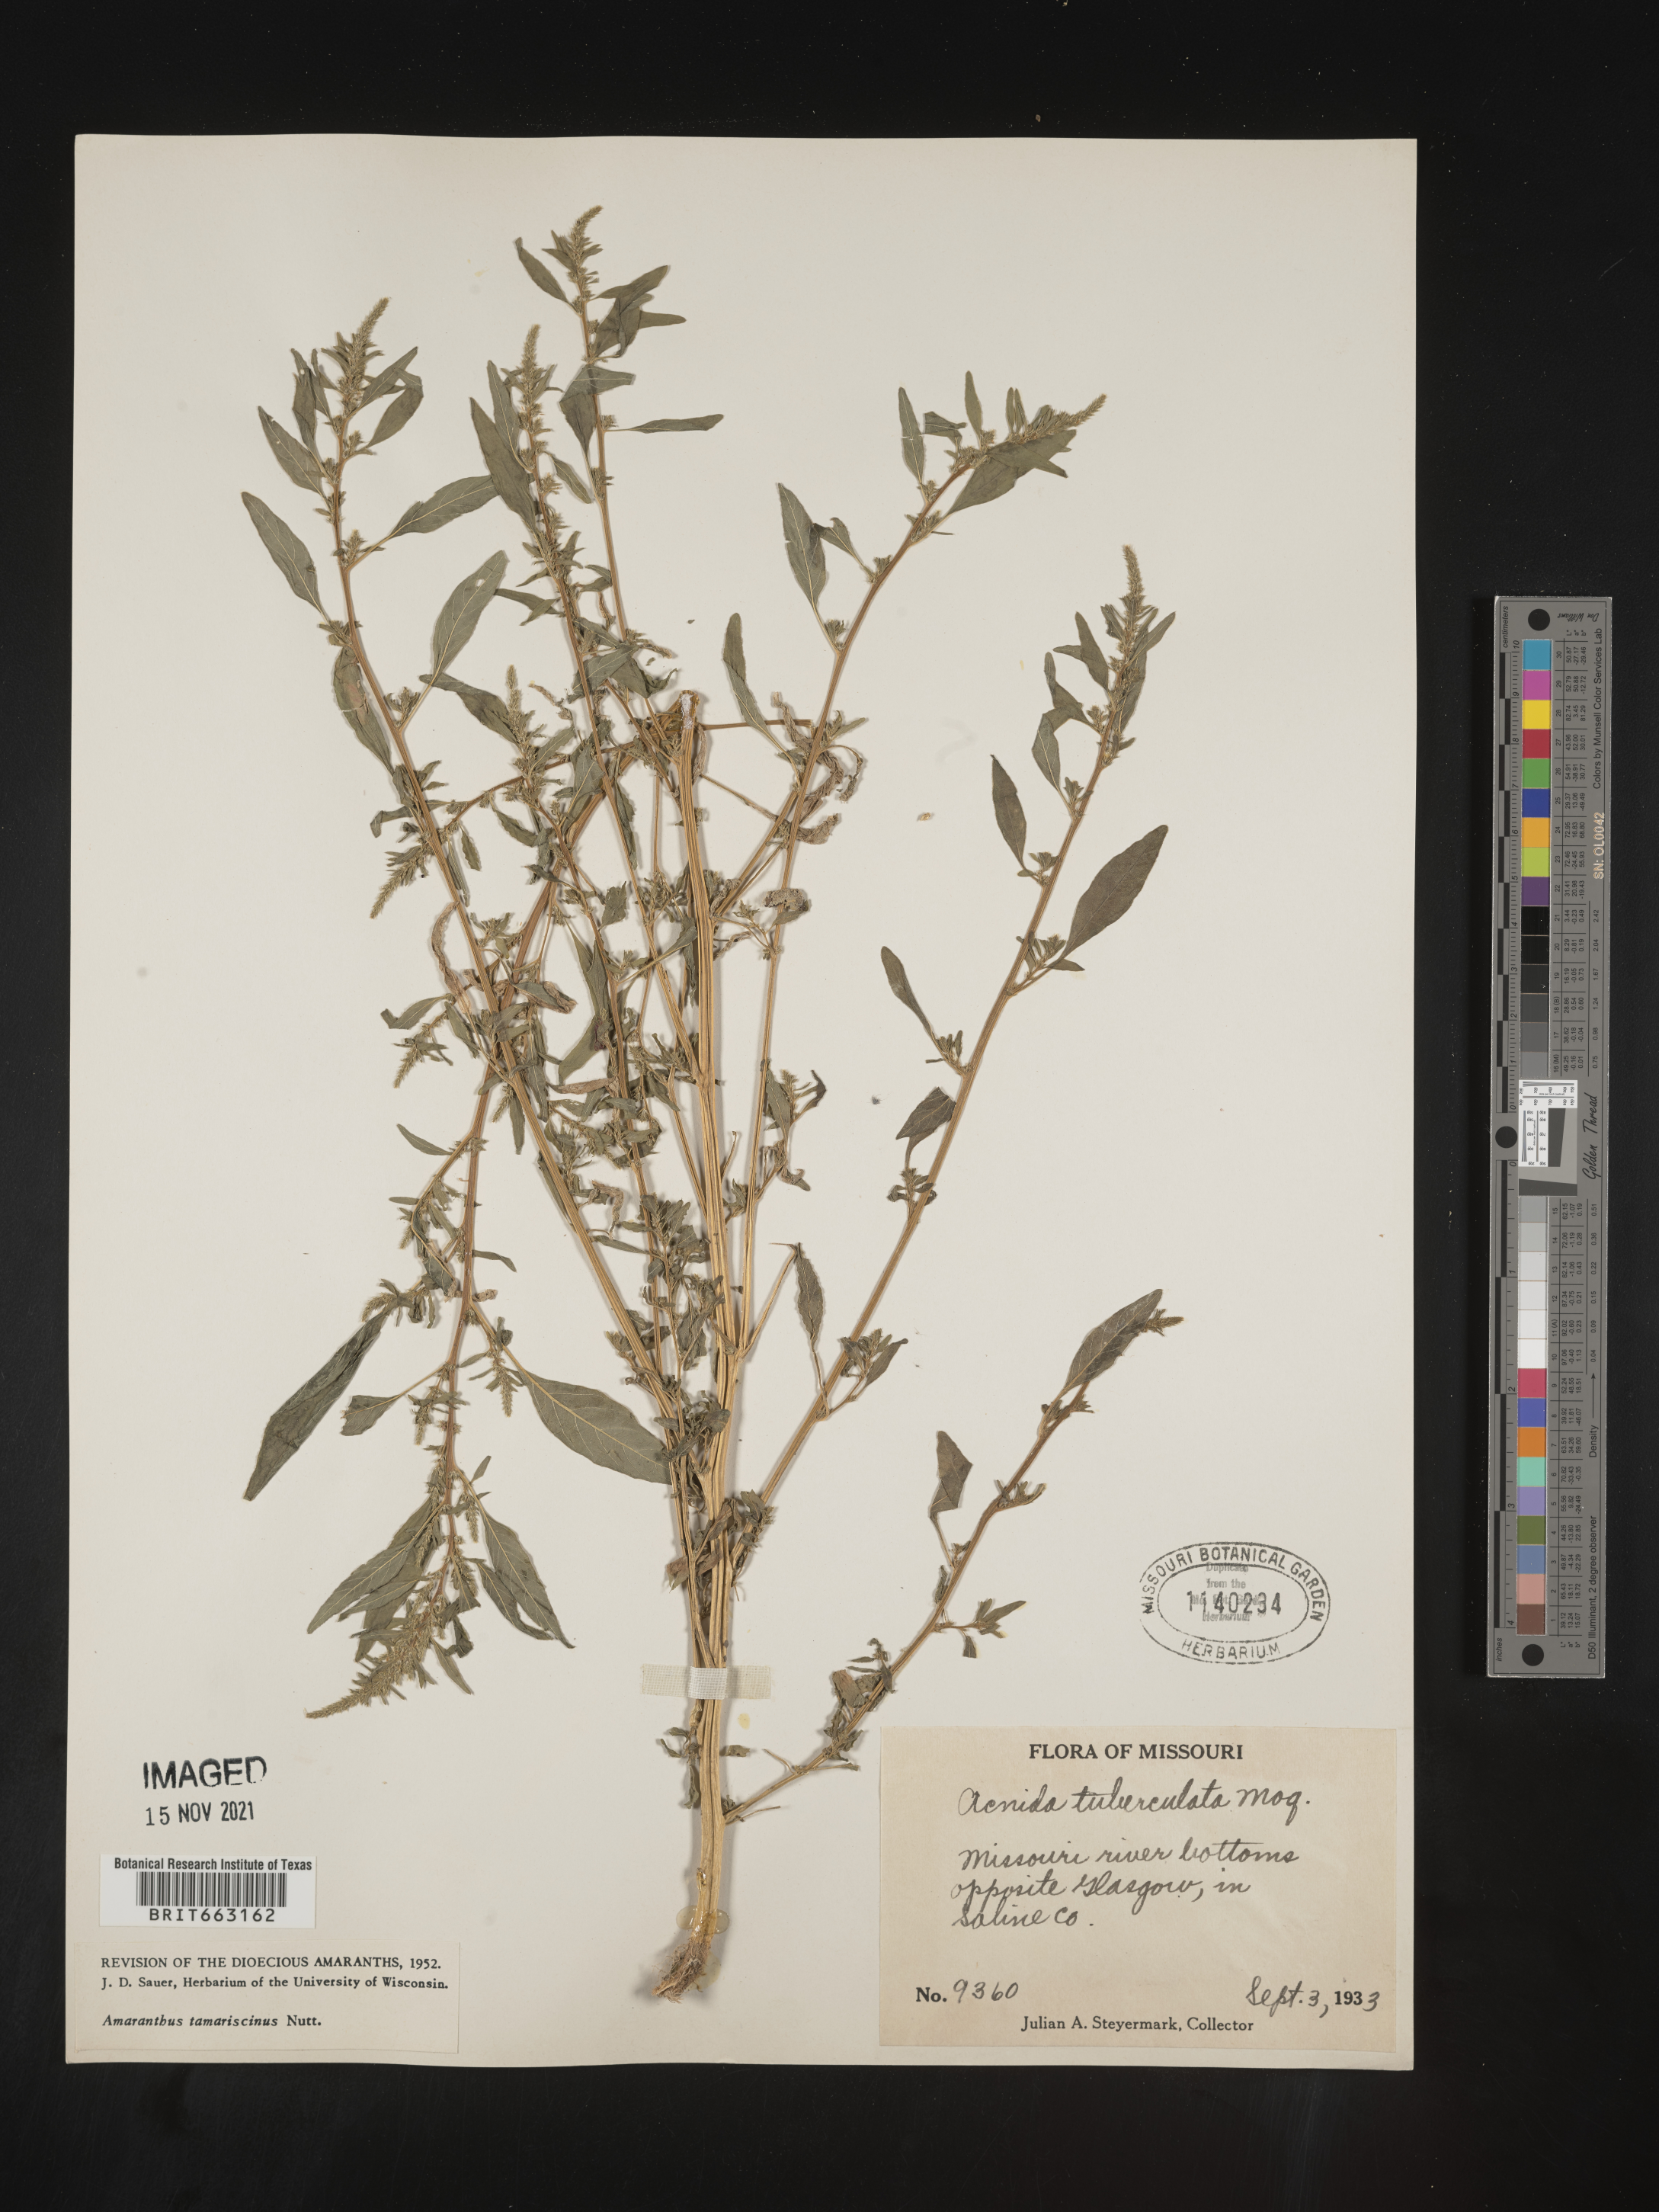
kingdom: Plantae
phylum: Tracheophyta
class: Magnoliopsida
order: Caryophyllales
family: Amaranthaceae
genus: Amaranthus
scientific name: Amaranthus tamariscinus
